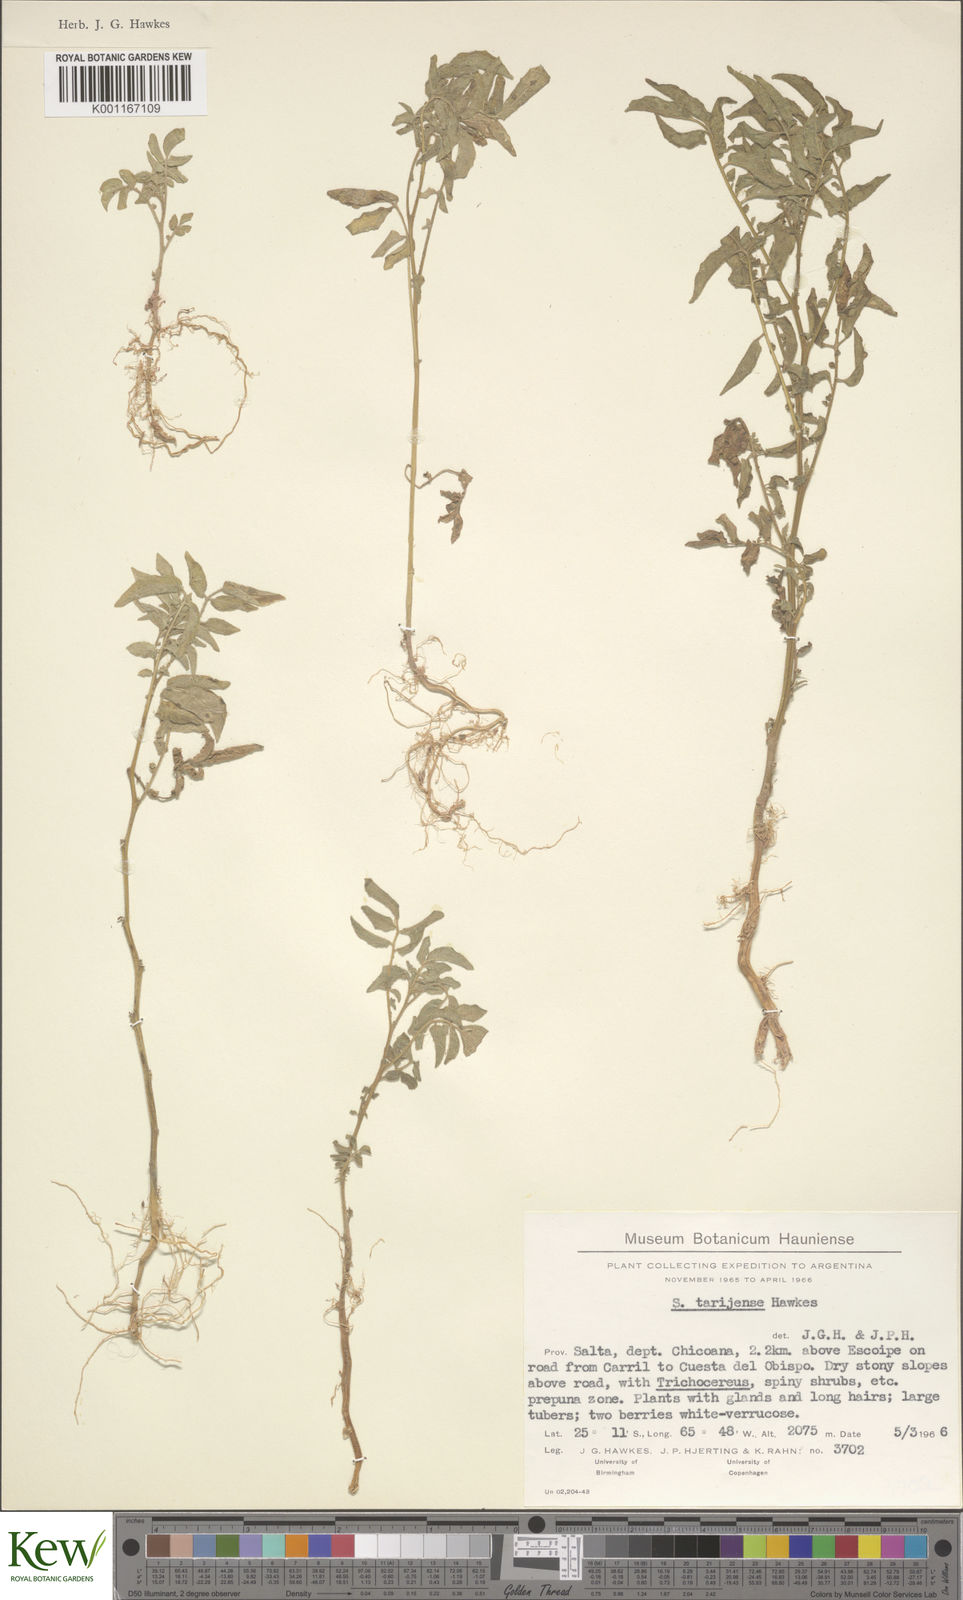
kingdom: Plantae
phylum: Tracheophyta
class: Magnoliopsida
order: Solanales
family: Solanaceae
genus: Solanum
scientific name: Solanum tarijense
